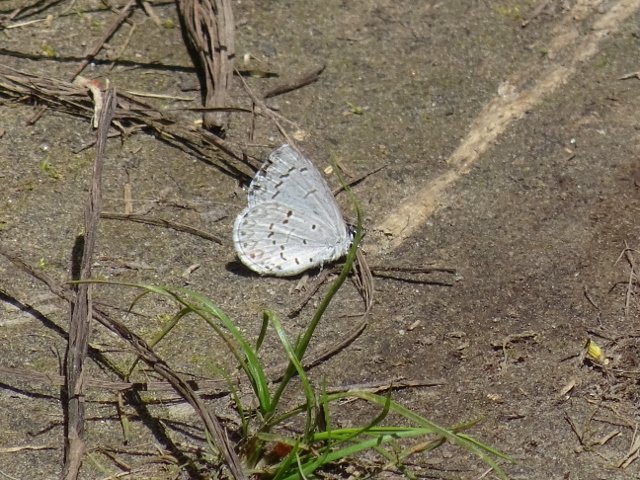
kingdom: Animalia
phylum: Arthropoda
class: Insecta
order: Lepidoptera
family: Lycaenidae
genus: Celastrina
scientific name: Celastrina
